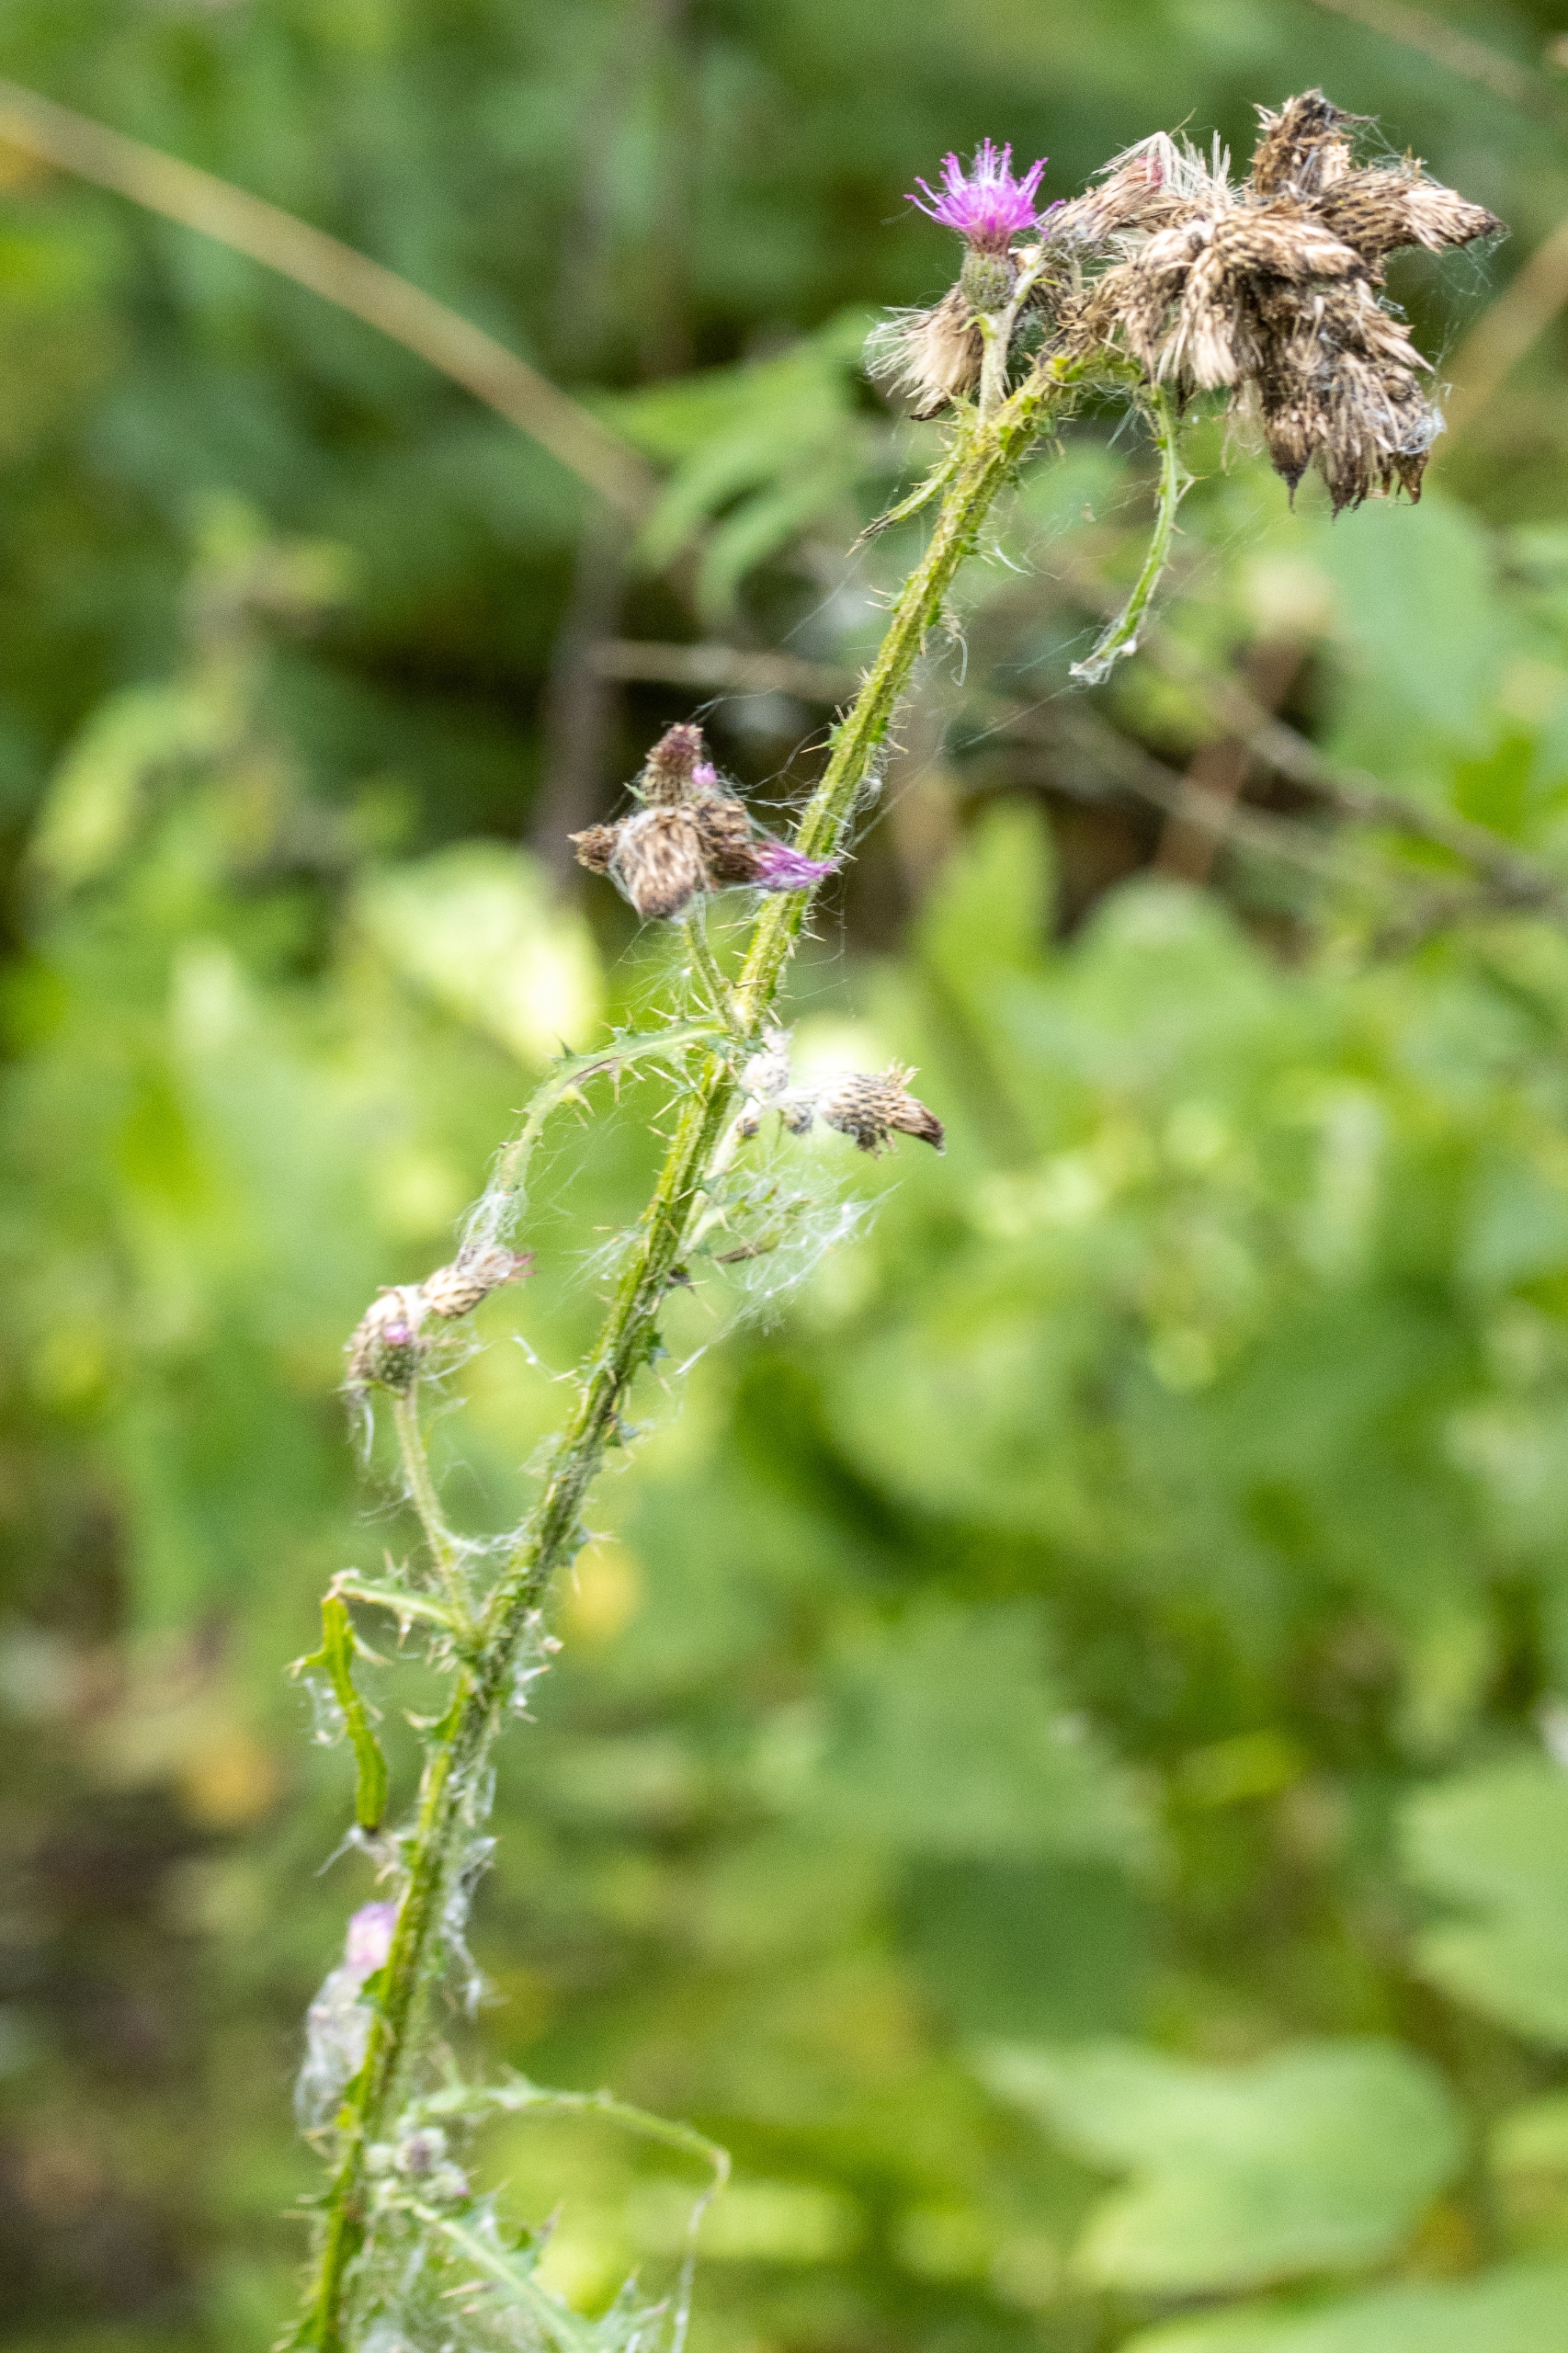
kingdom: Plantae
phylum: Tracheophyta
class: Magnoliopsida
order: Asterales
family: Asteraceae
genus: Cirsium
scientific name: Cirsium palustre
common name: Kær-tidsel
